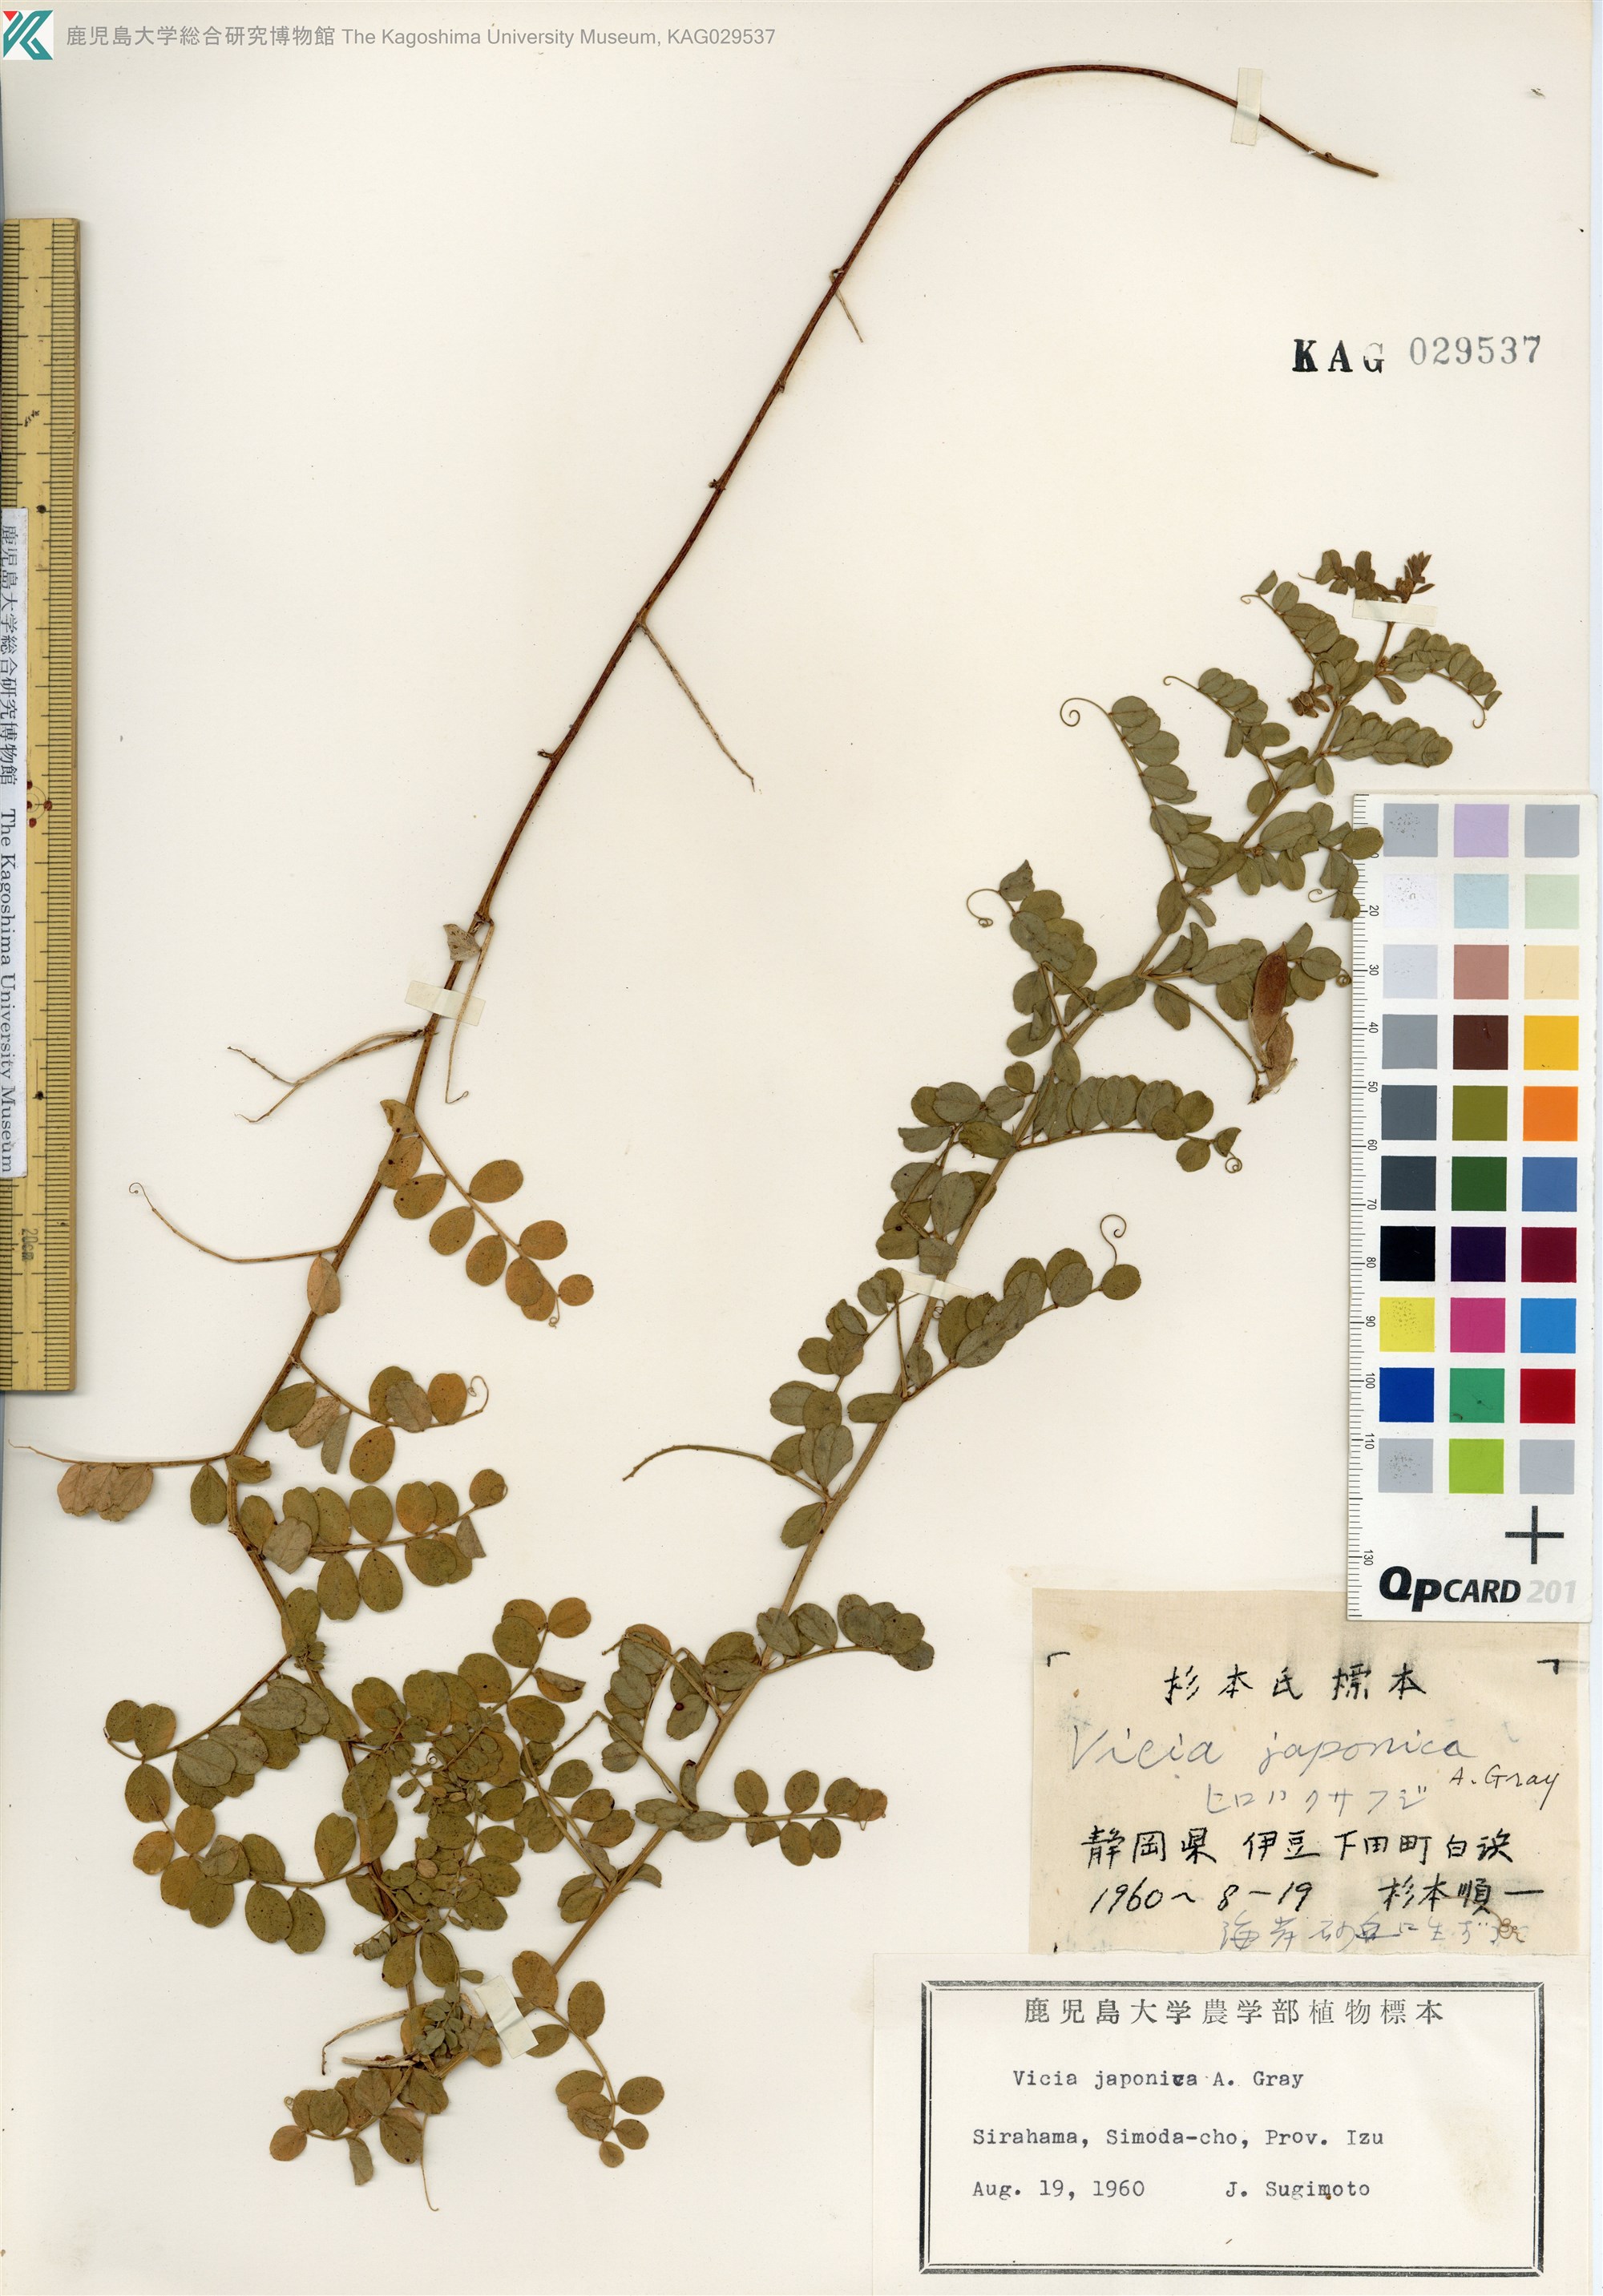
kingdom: Plantae
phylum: Tracheophyta
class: Magnoliopsida
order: Fabales
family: Fabaceae
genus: Vicia
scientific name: Vicia japonica
